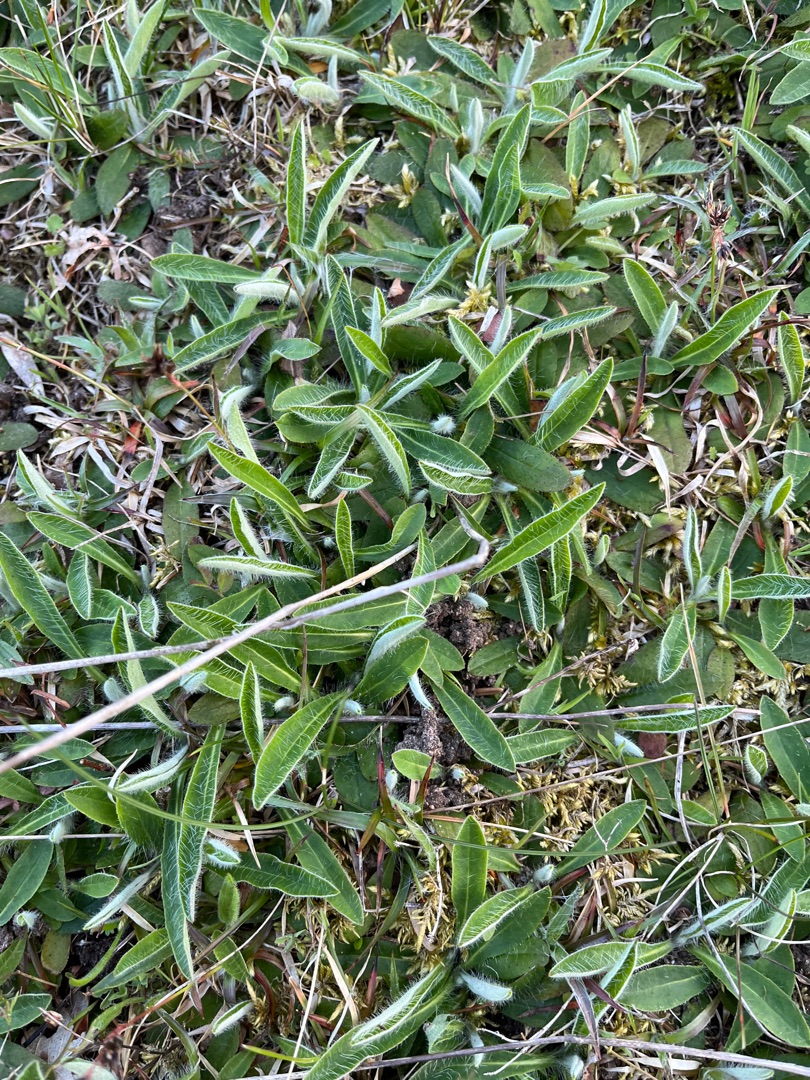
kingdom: Plantae
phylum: Tracheophyta
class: Magnoliopsida
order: Asterales
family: Asteraceae
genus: Pilosella
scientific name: Pilosella officinarum
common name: Håret høgeurt
